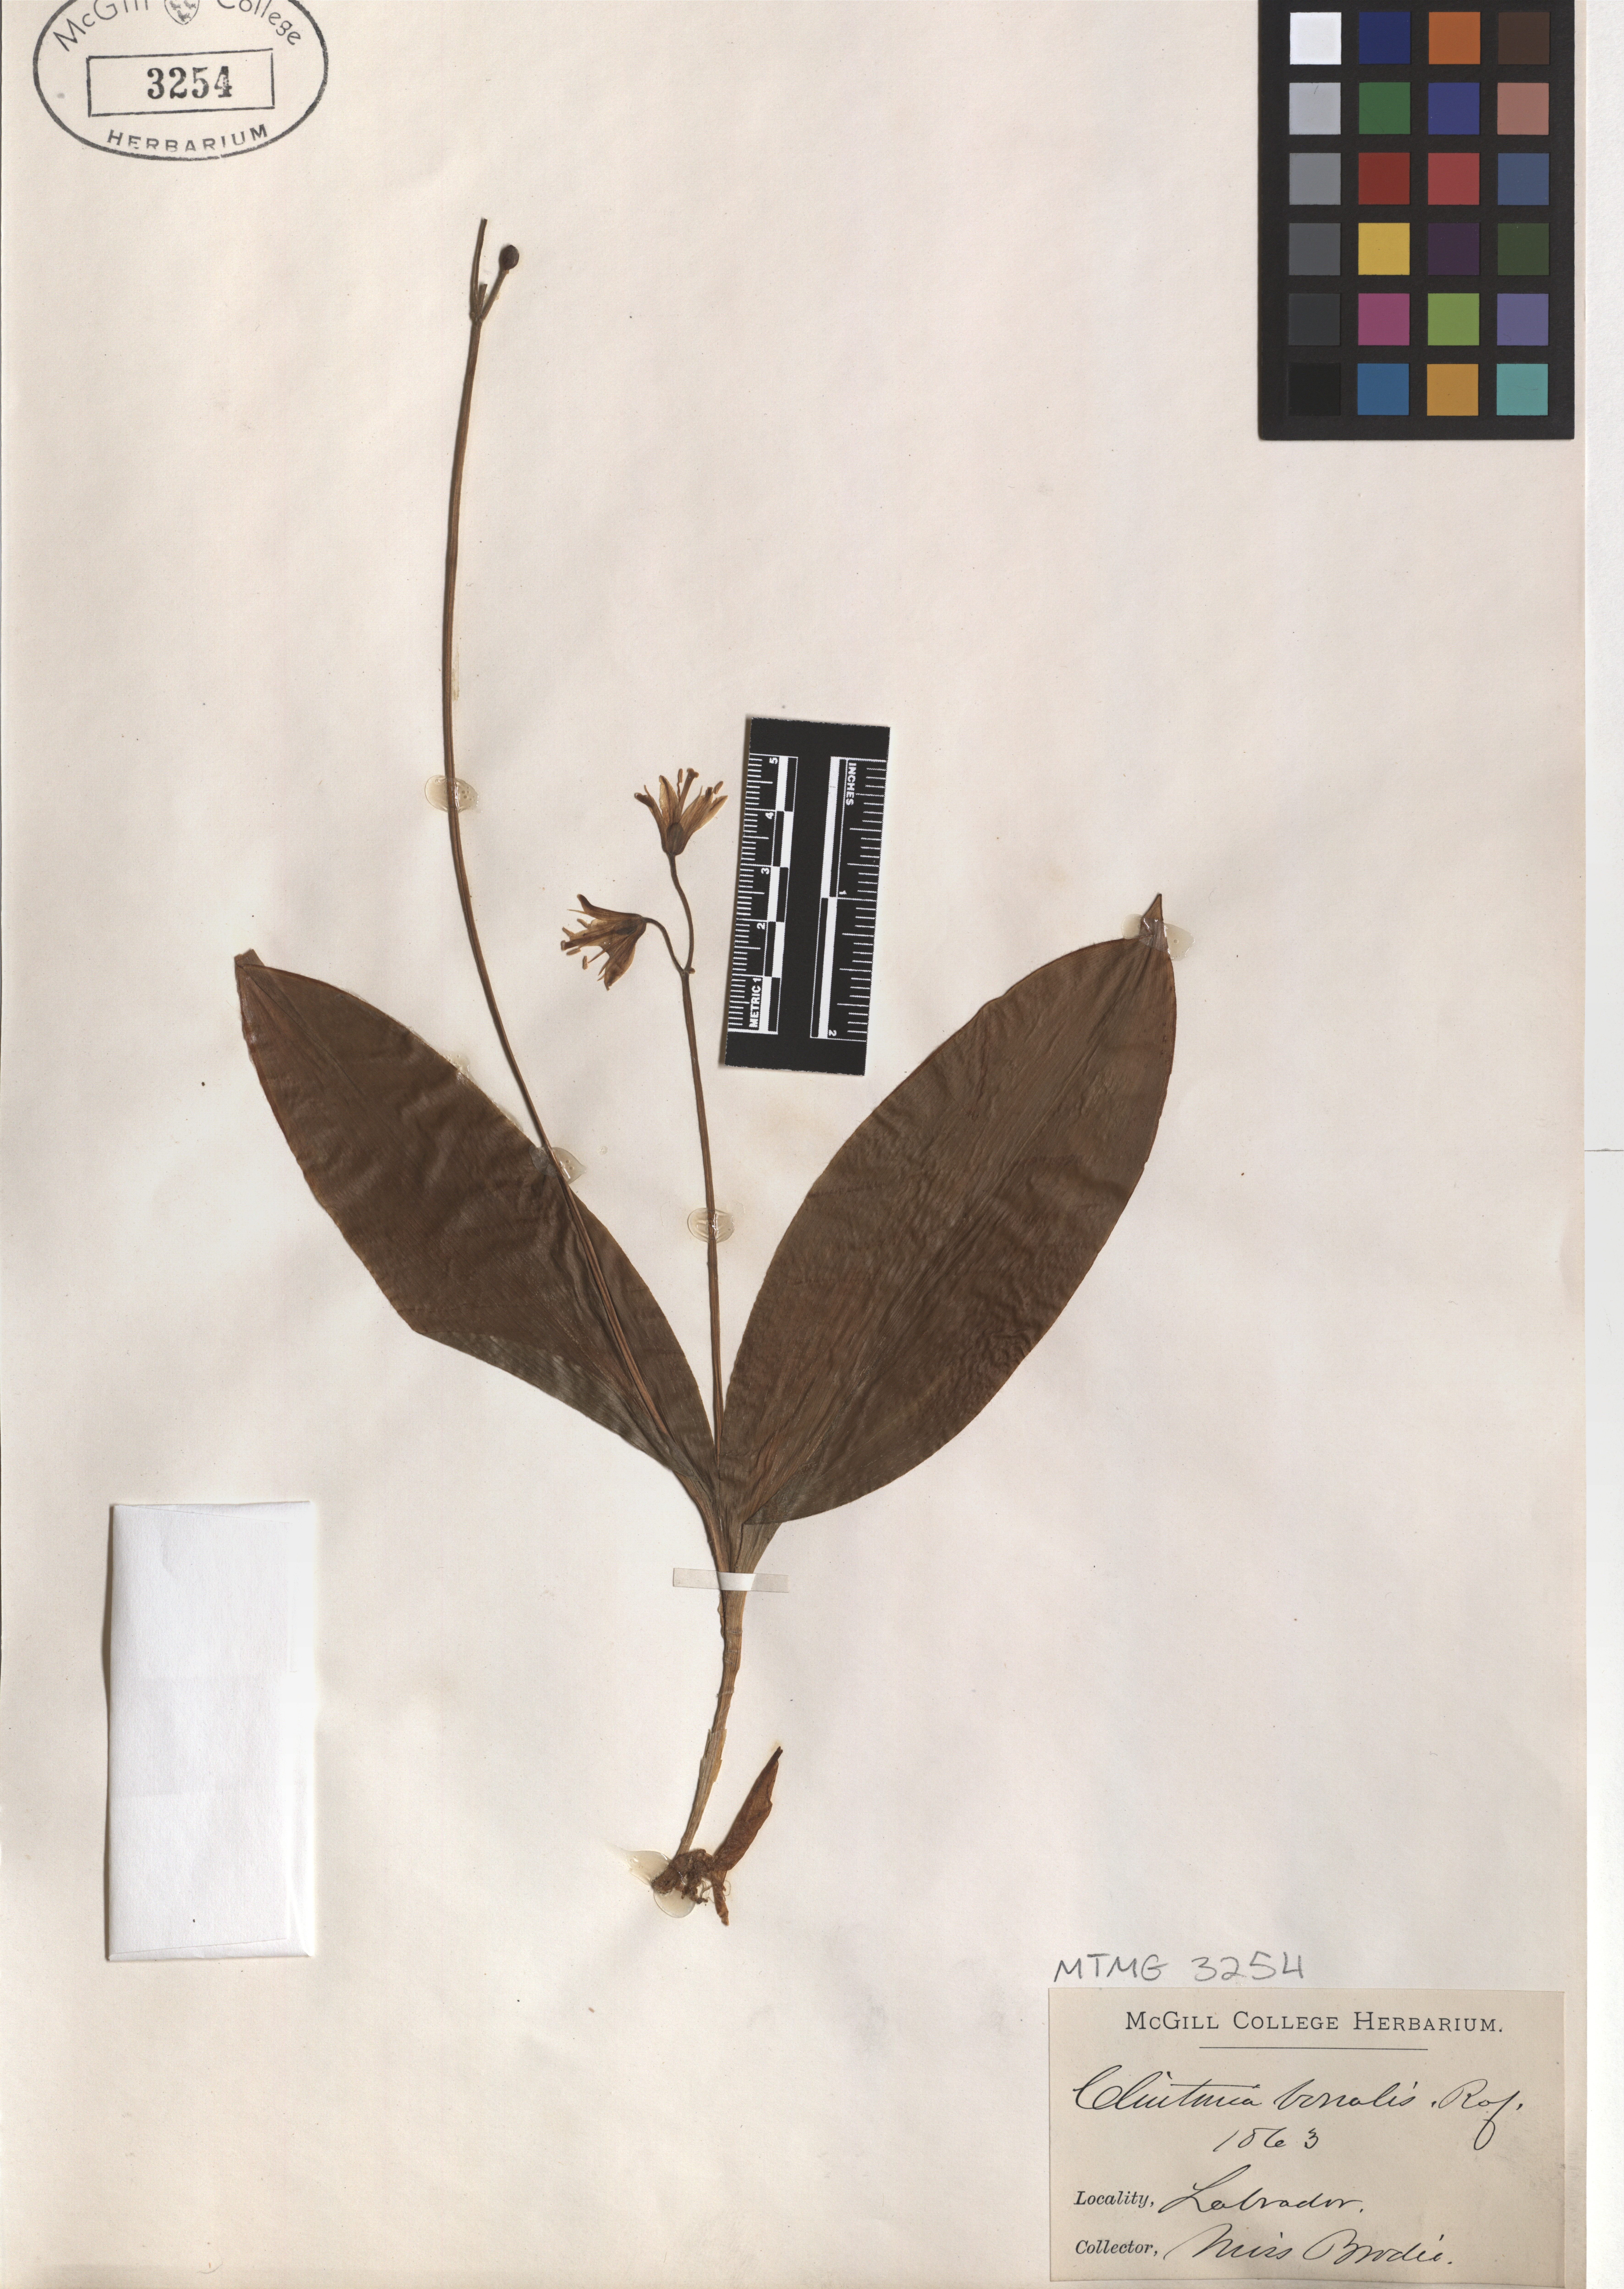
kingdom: Plantae
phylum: Tracheophyta
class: Liliopsida
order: Liliales
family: Liliaceae
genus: Clintonia
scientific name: Clintonia borealis
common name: Yellow clintonia
